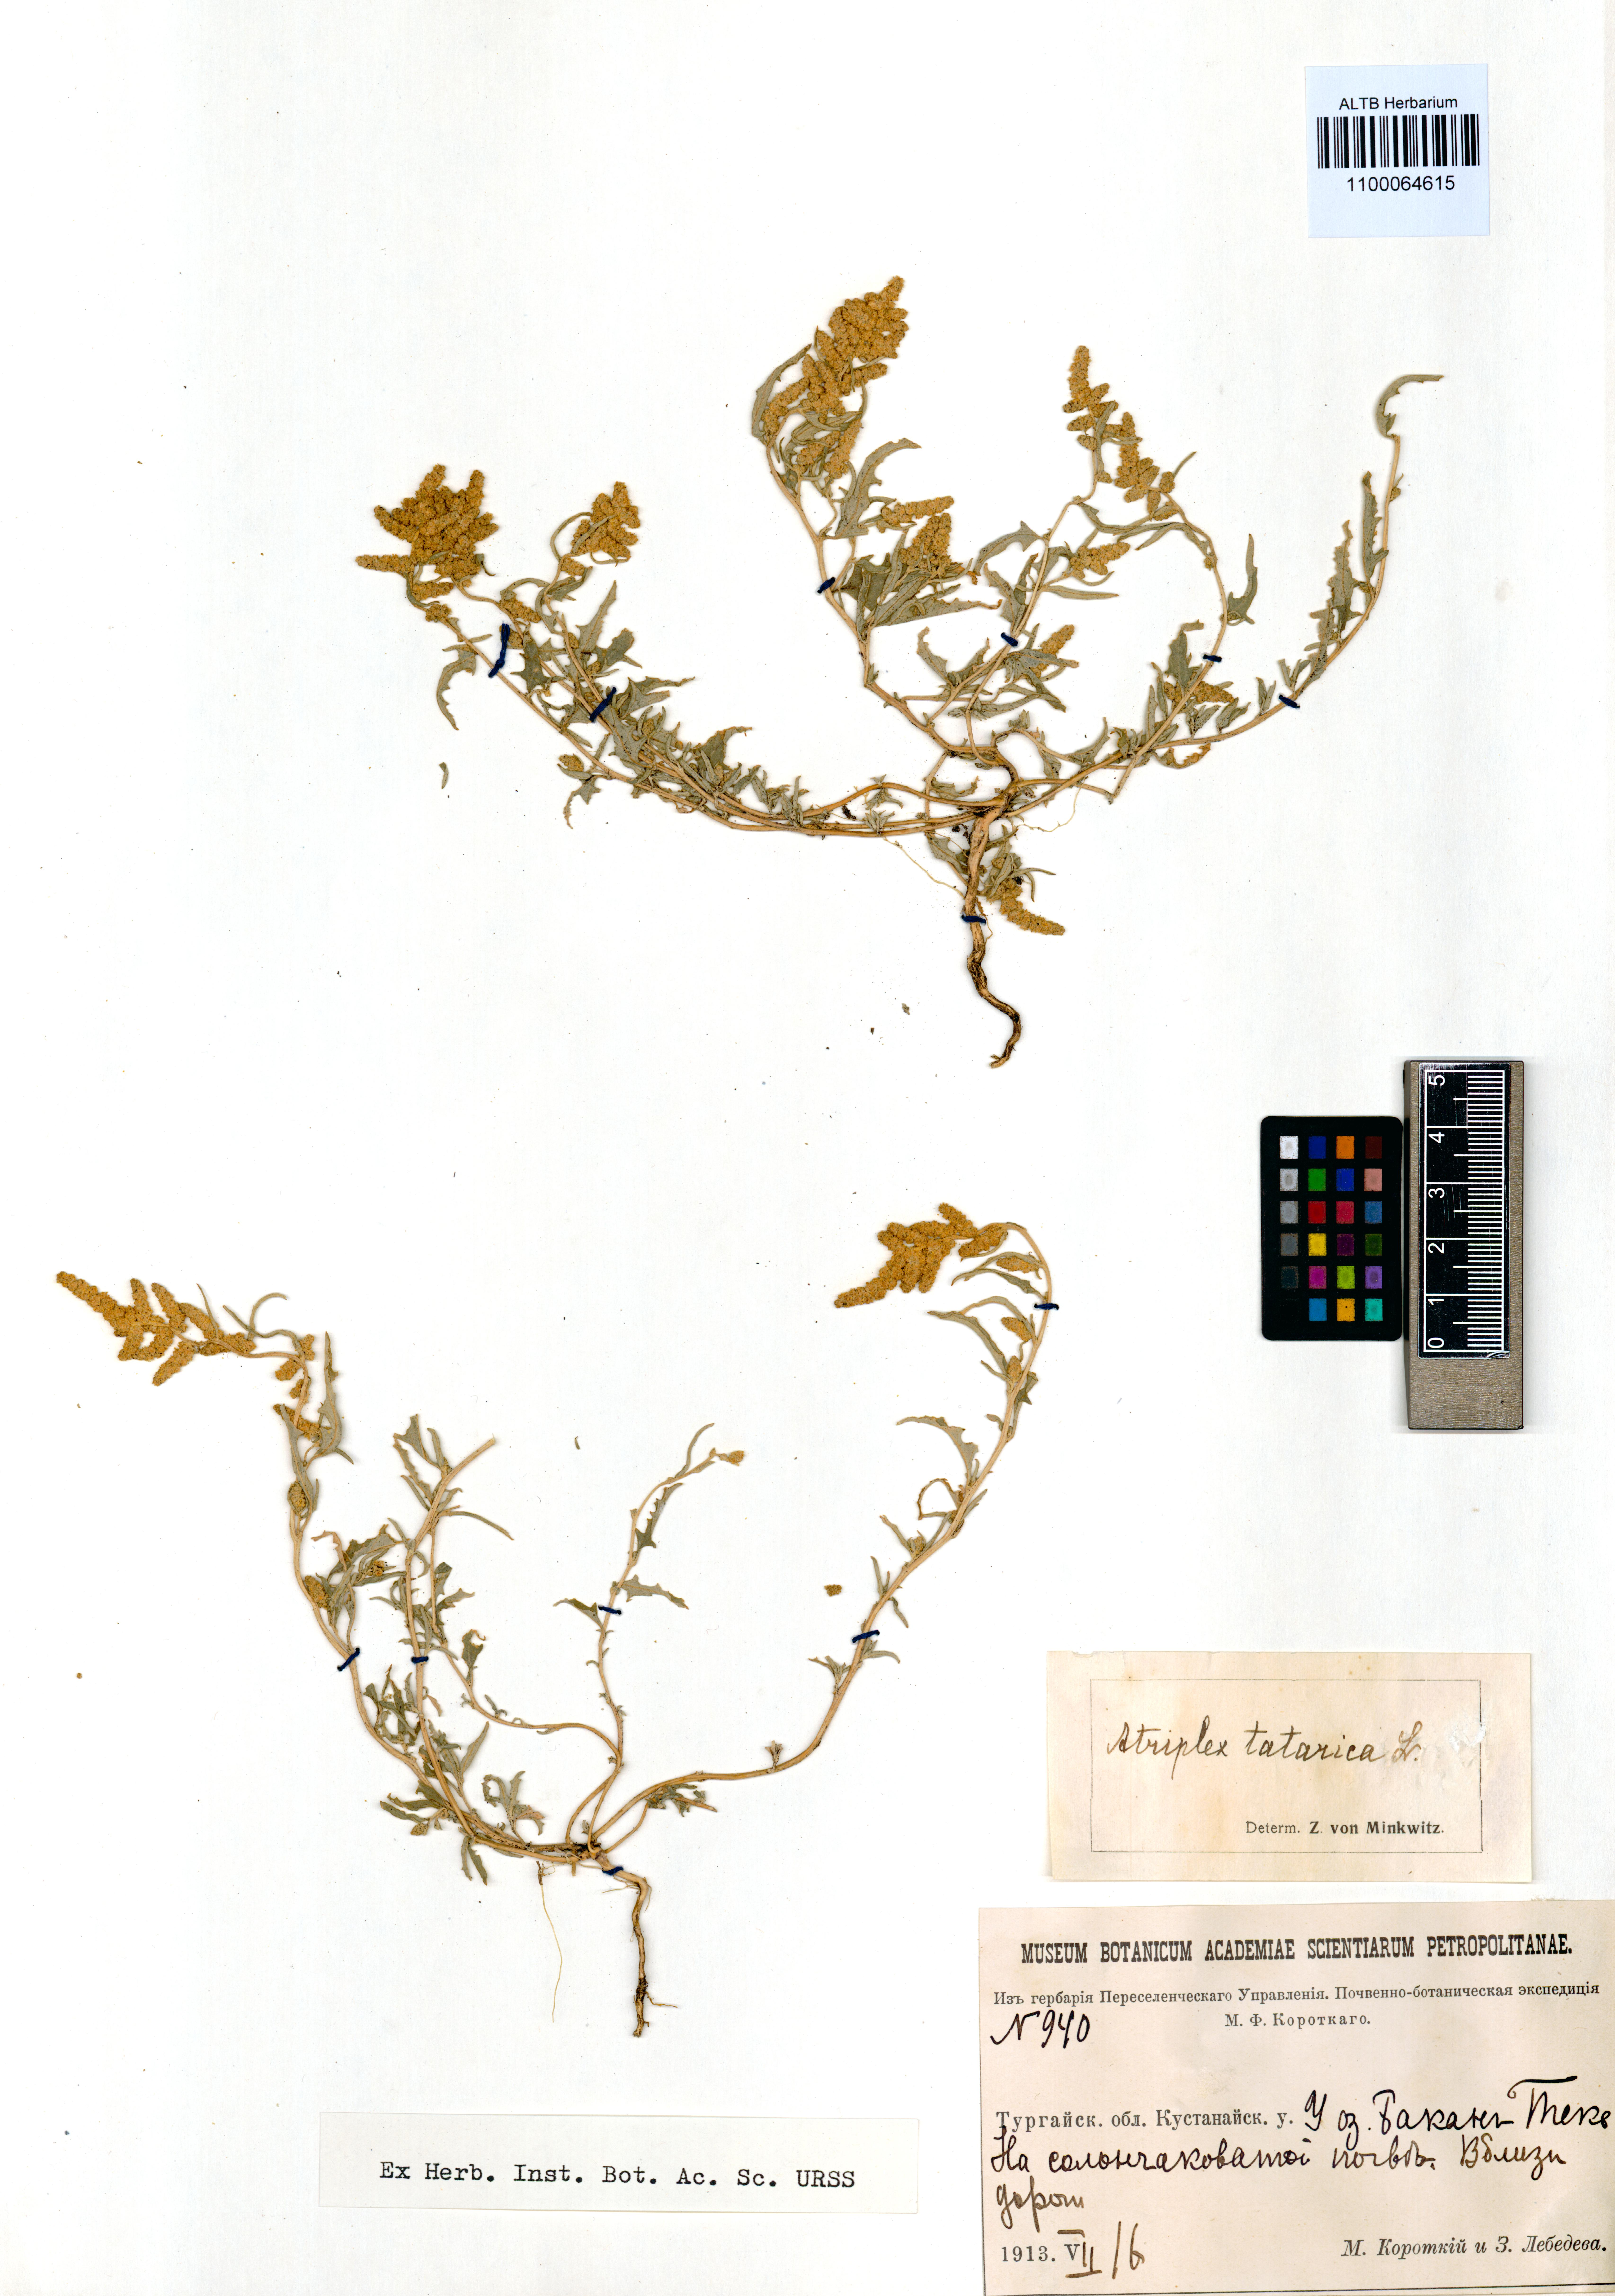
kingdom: Plantae
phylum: Tracheophyta
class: Magnoliopsida
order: Caryophyllales
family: Amaranthaceae
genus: Atriplex
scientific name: Atriplex tatarica
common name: Tatarian orache
